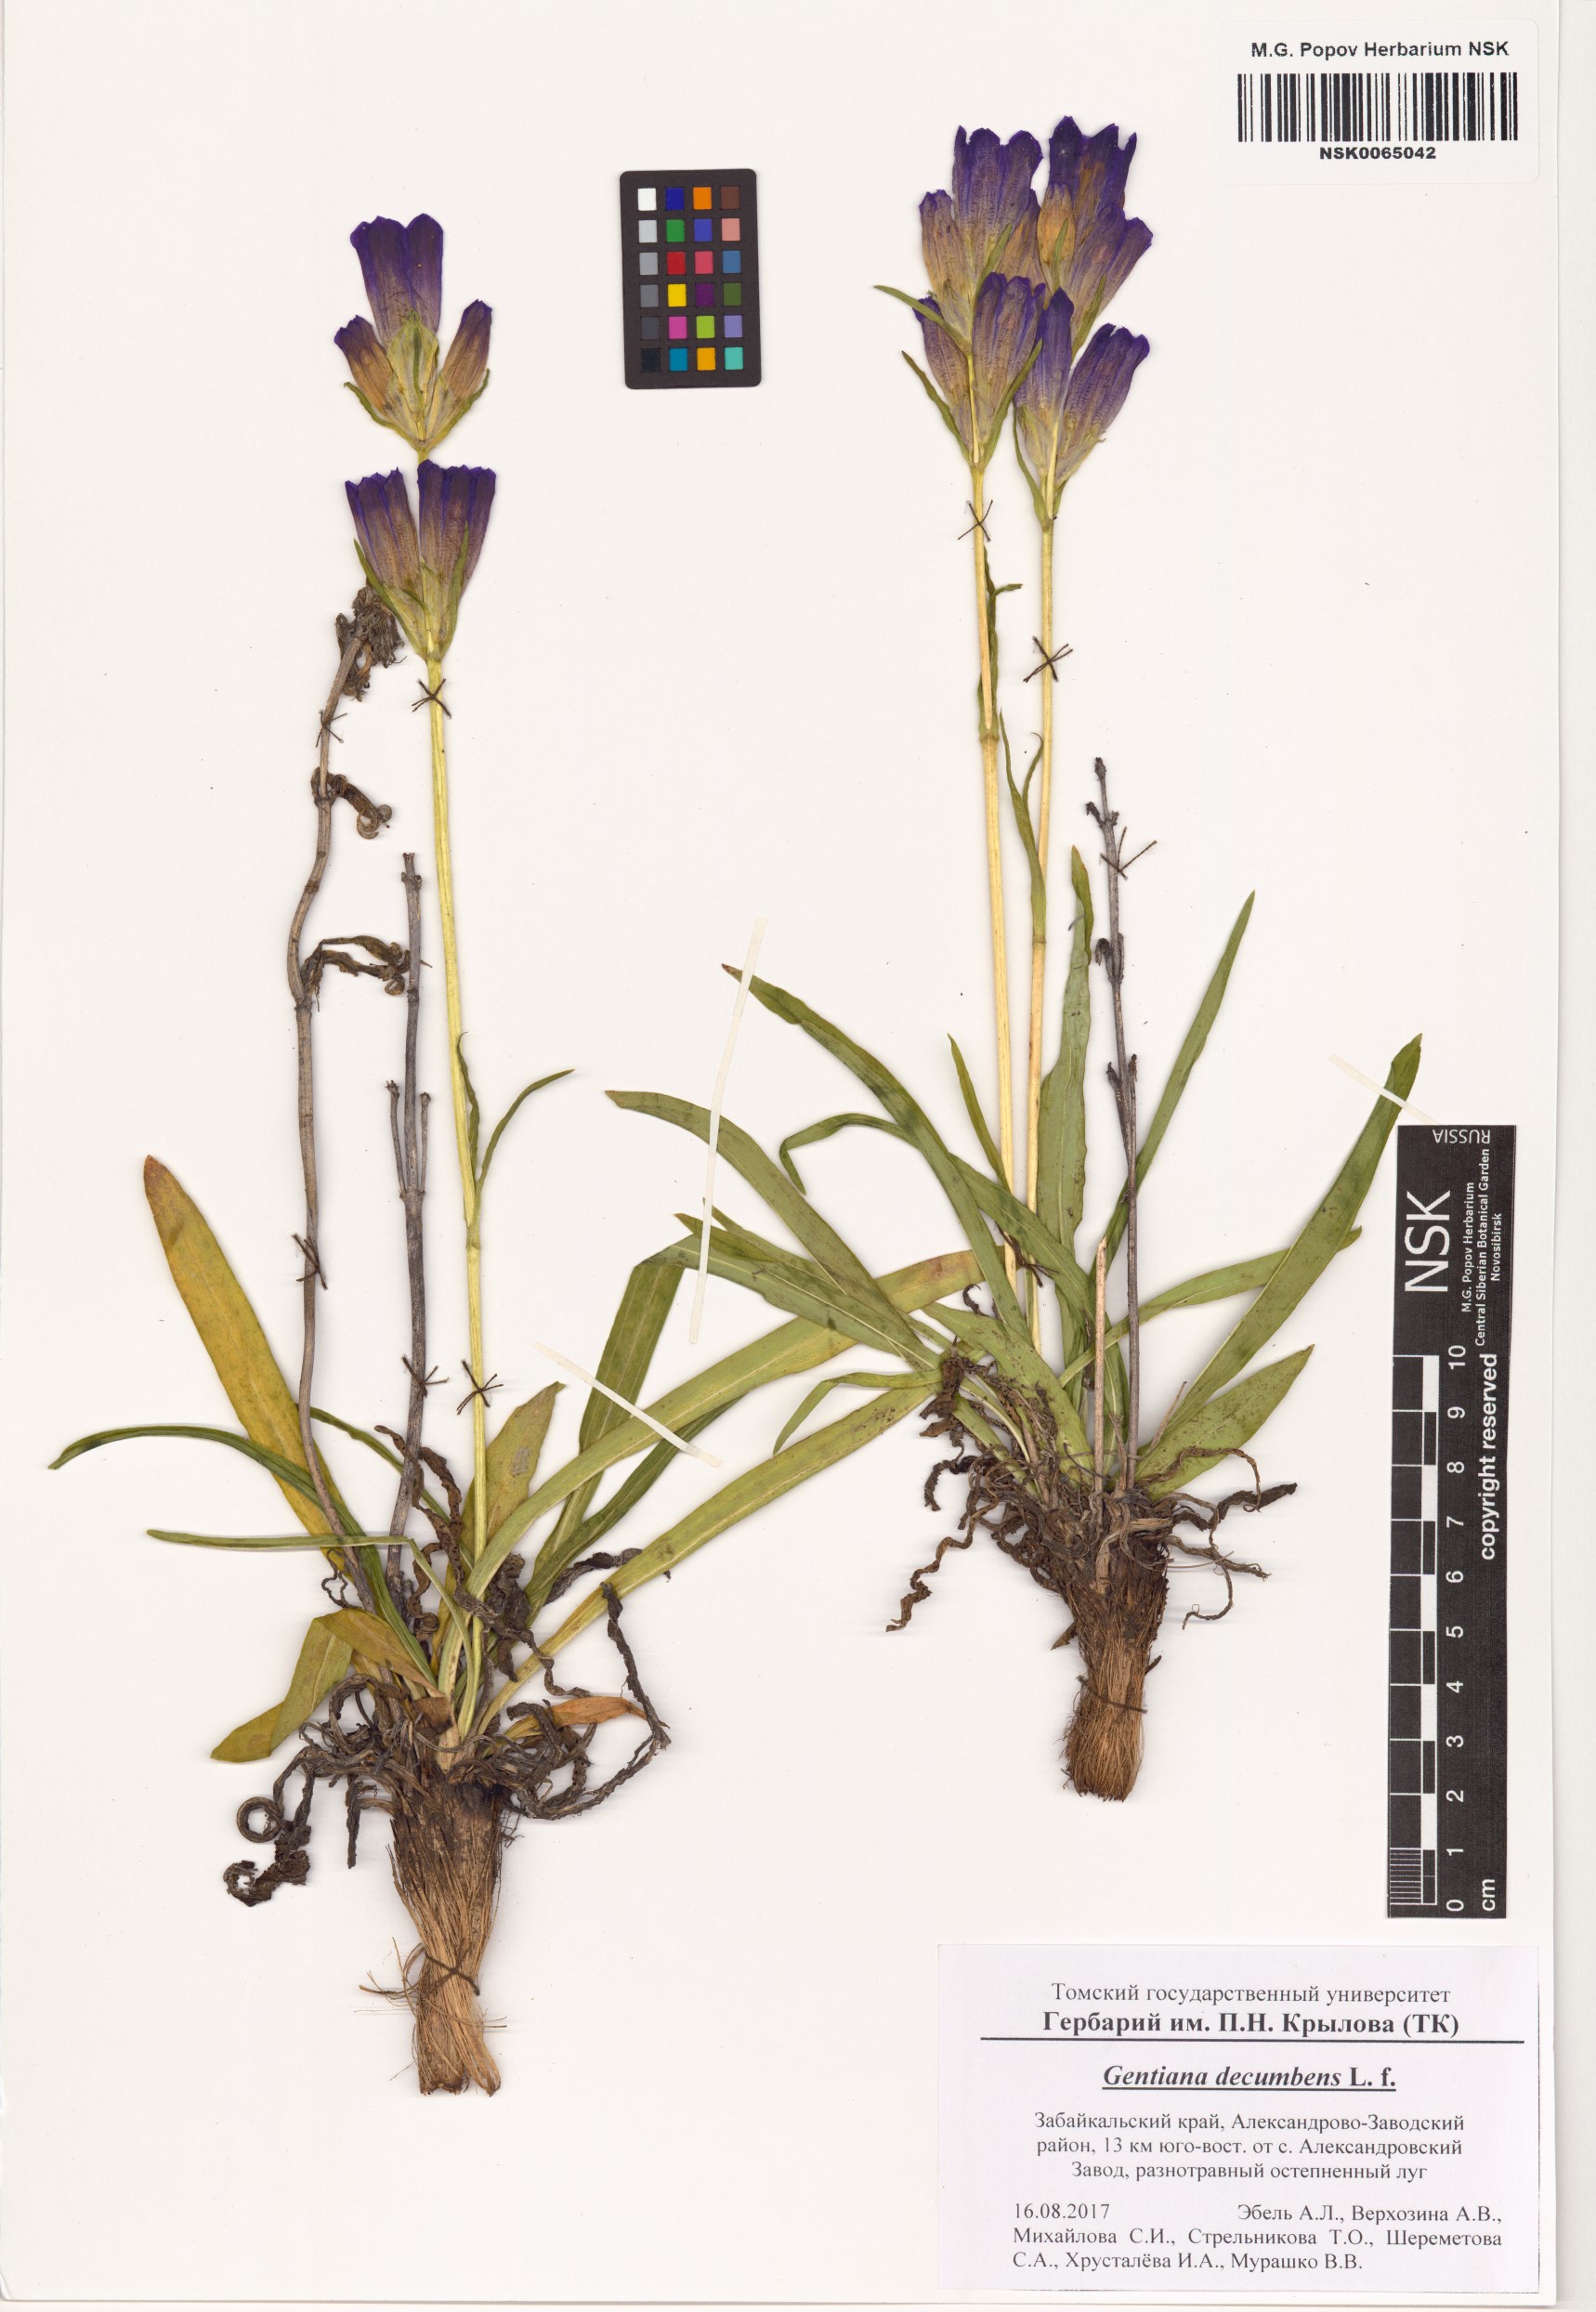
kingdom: Plantae
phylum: Tracheophyta
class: Magnoliopsida
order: Gentianales
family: Gentianaceae
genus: Gentiana
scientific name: Gentiana decumbens
